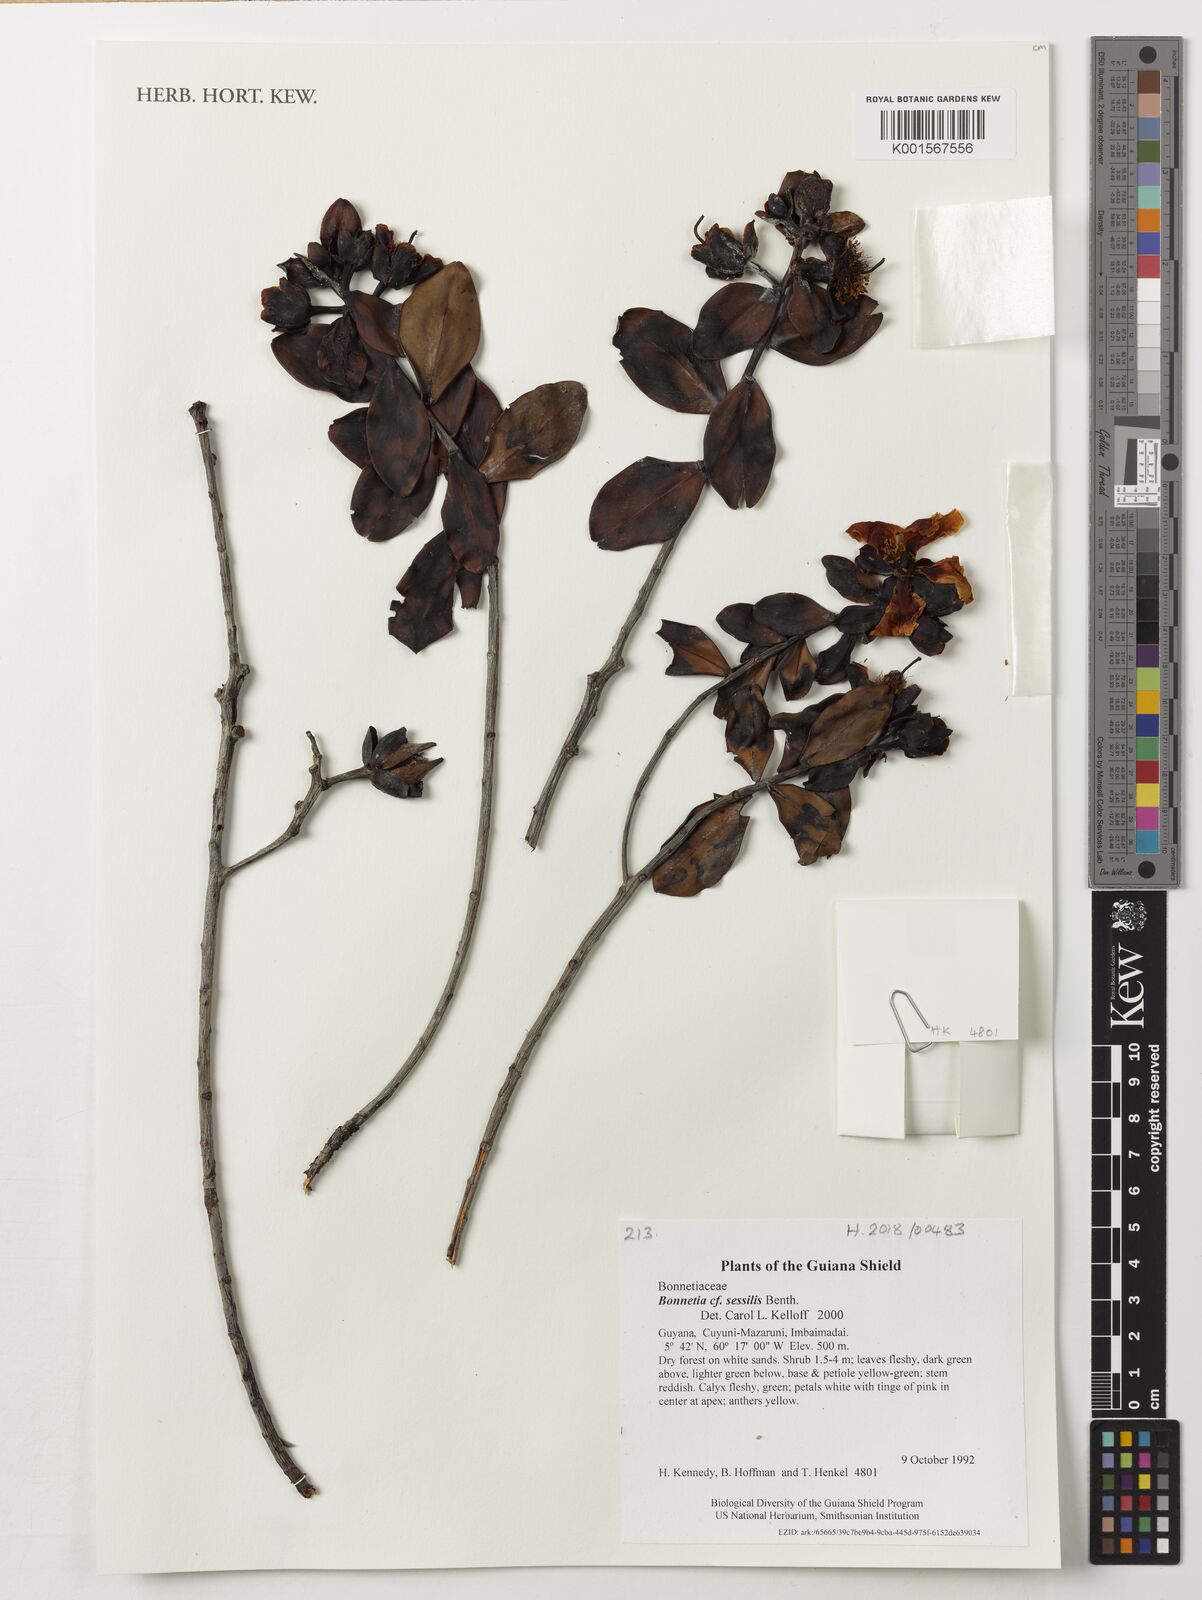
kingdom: Plantae
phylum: Tracheophyta
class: Magnoliopsida
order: Malpighiales
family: Bonnetiaceae
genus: Bonnetia
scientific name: Bonnetia sessilis
